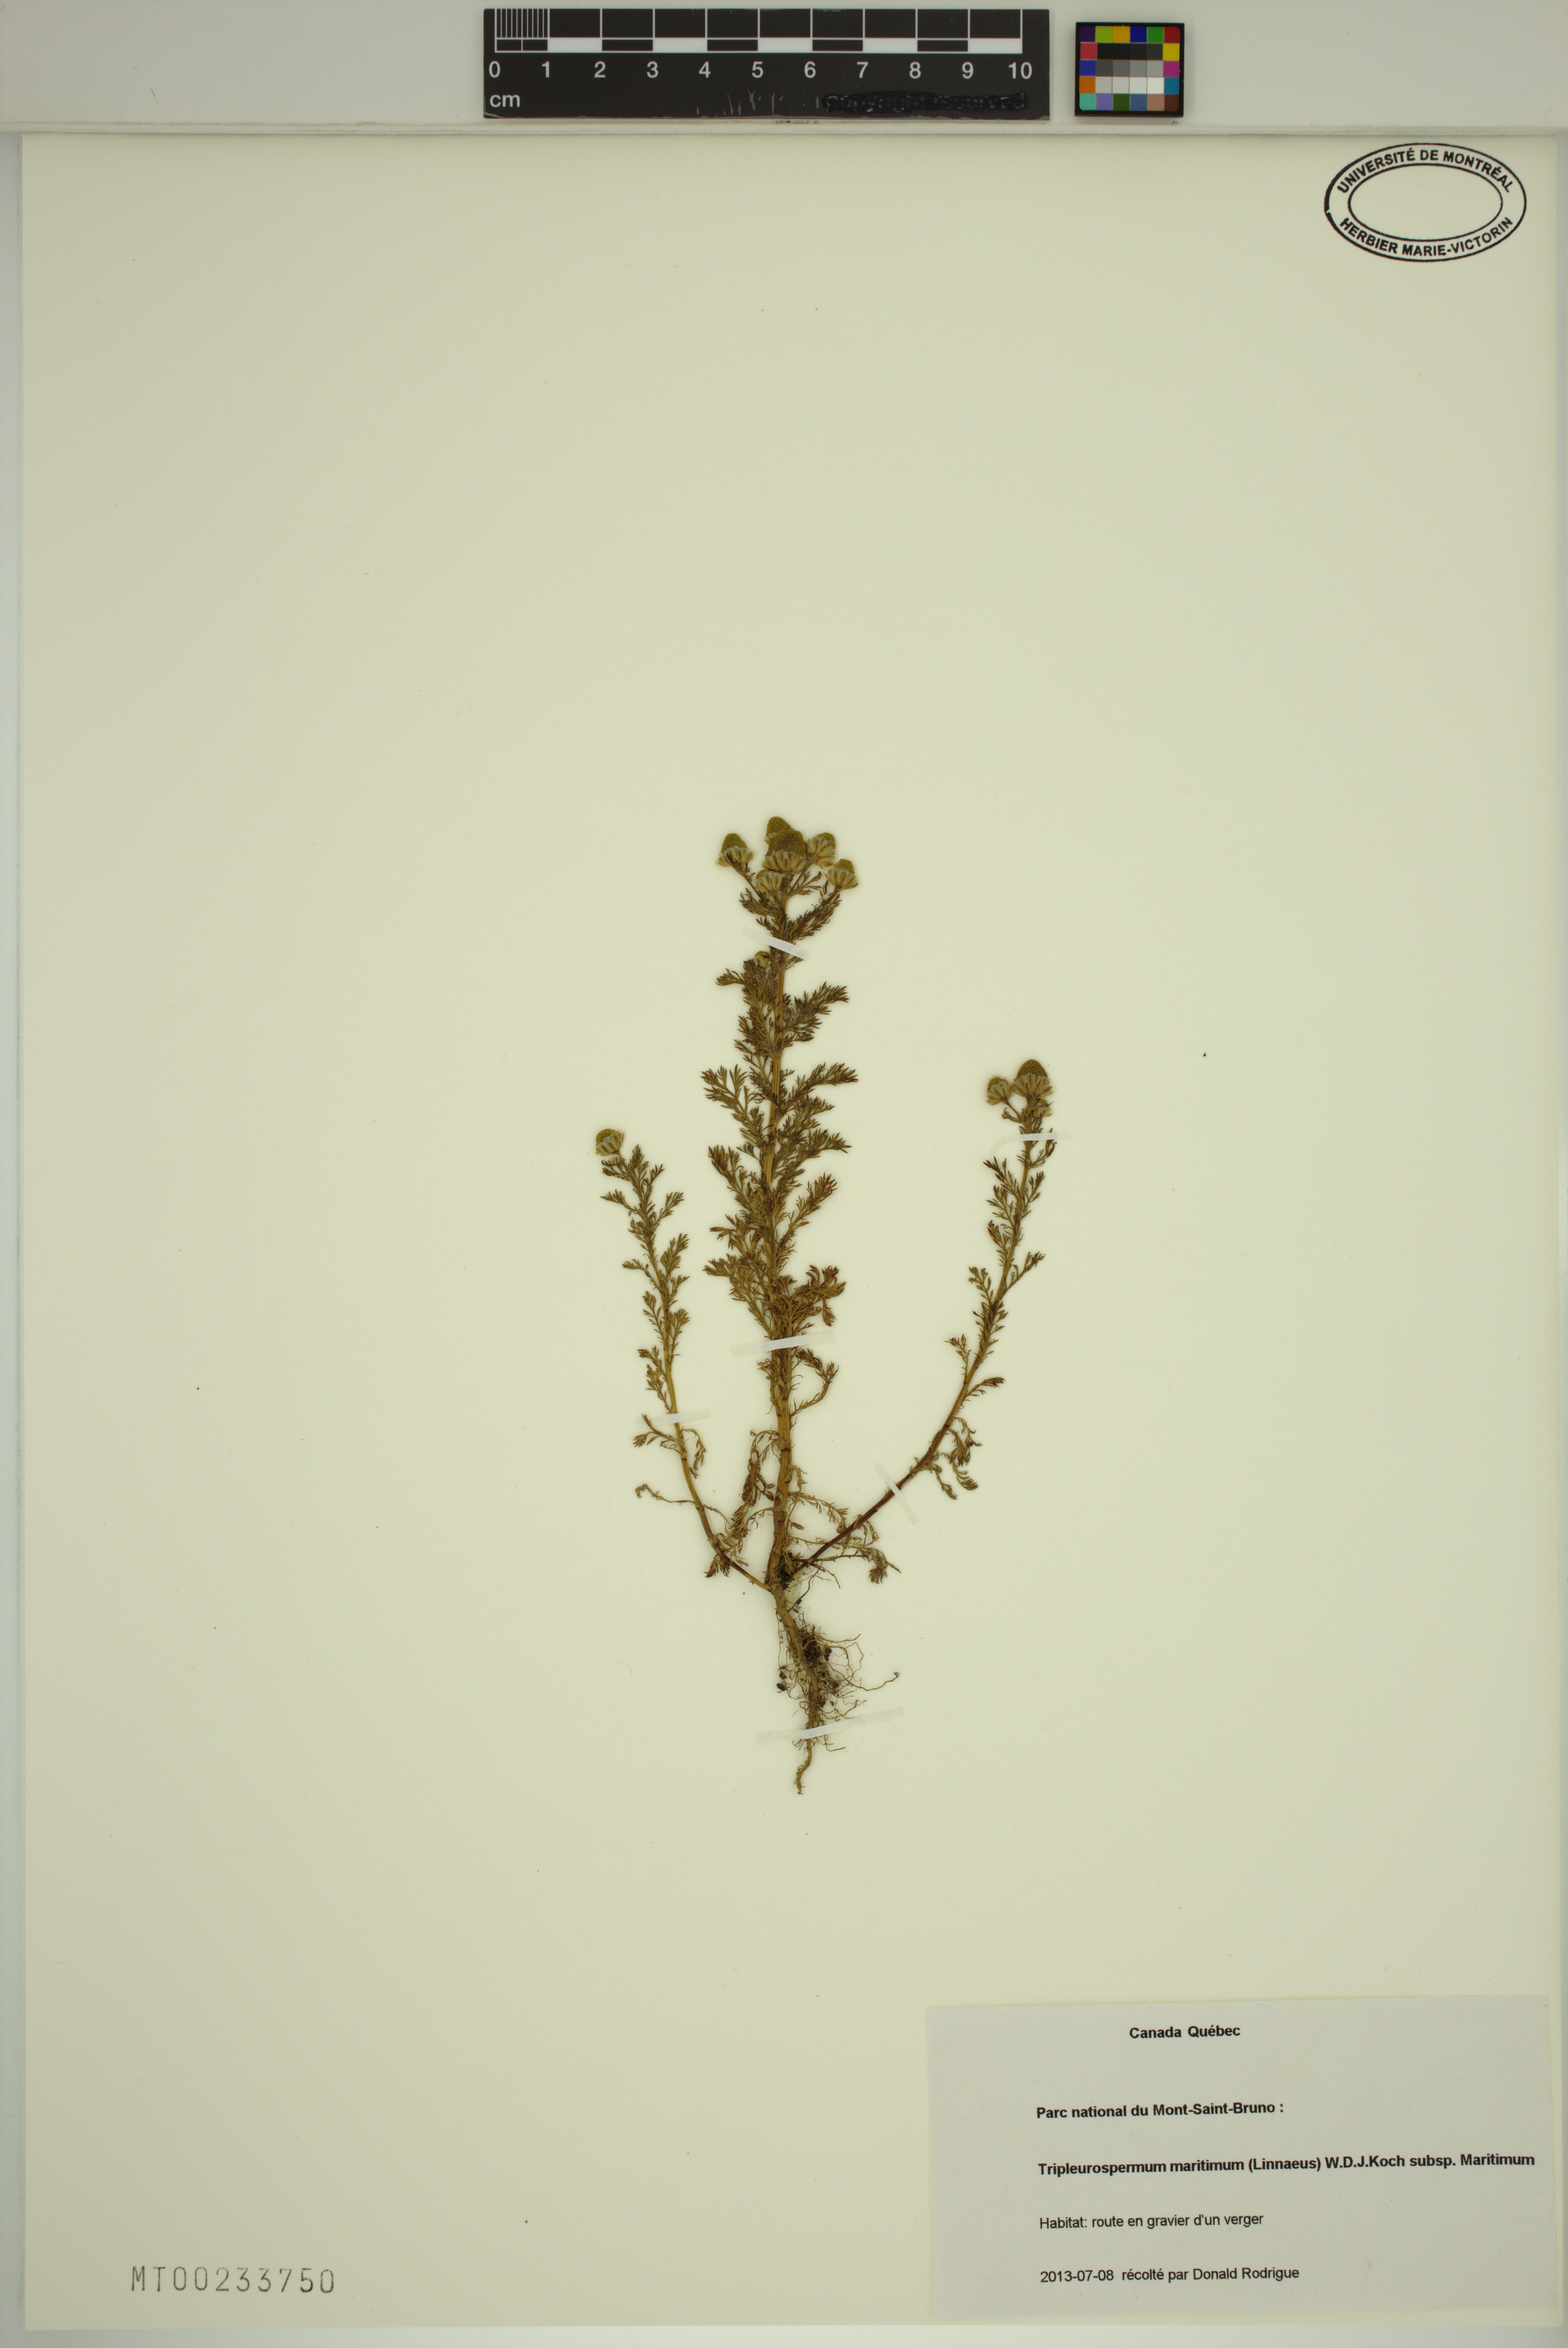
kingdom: Plantae
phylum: Tracheophyta
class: Magnoliopsida
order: Asterales
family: Asteraceae
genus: Tripleurospermum
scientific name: Tripleurospermum maritimum
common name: Sea mayweed
